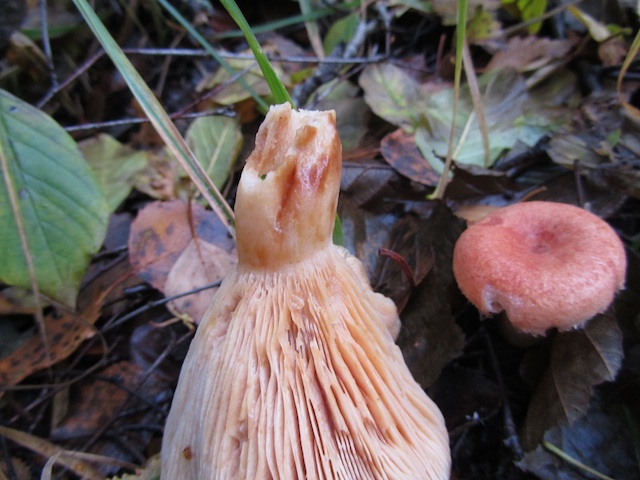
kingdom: Fungi
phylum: Basidiomycota
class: Agaricomycetes
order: Russulales
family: Russulaceae
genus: Lactarius
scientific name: Lactarius torminosus
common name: skægget mælkehat
